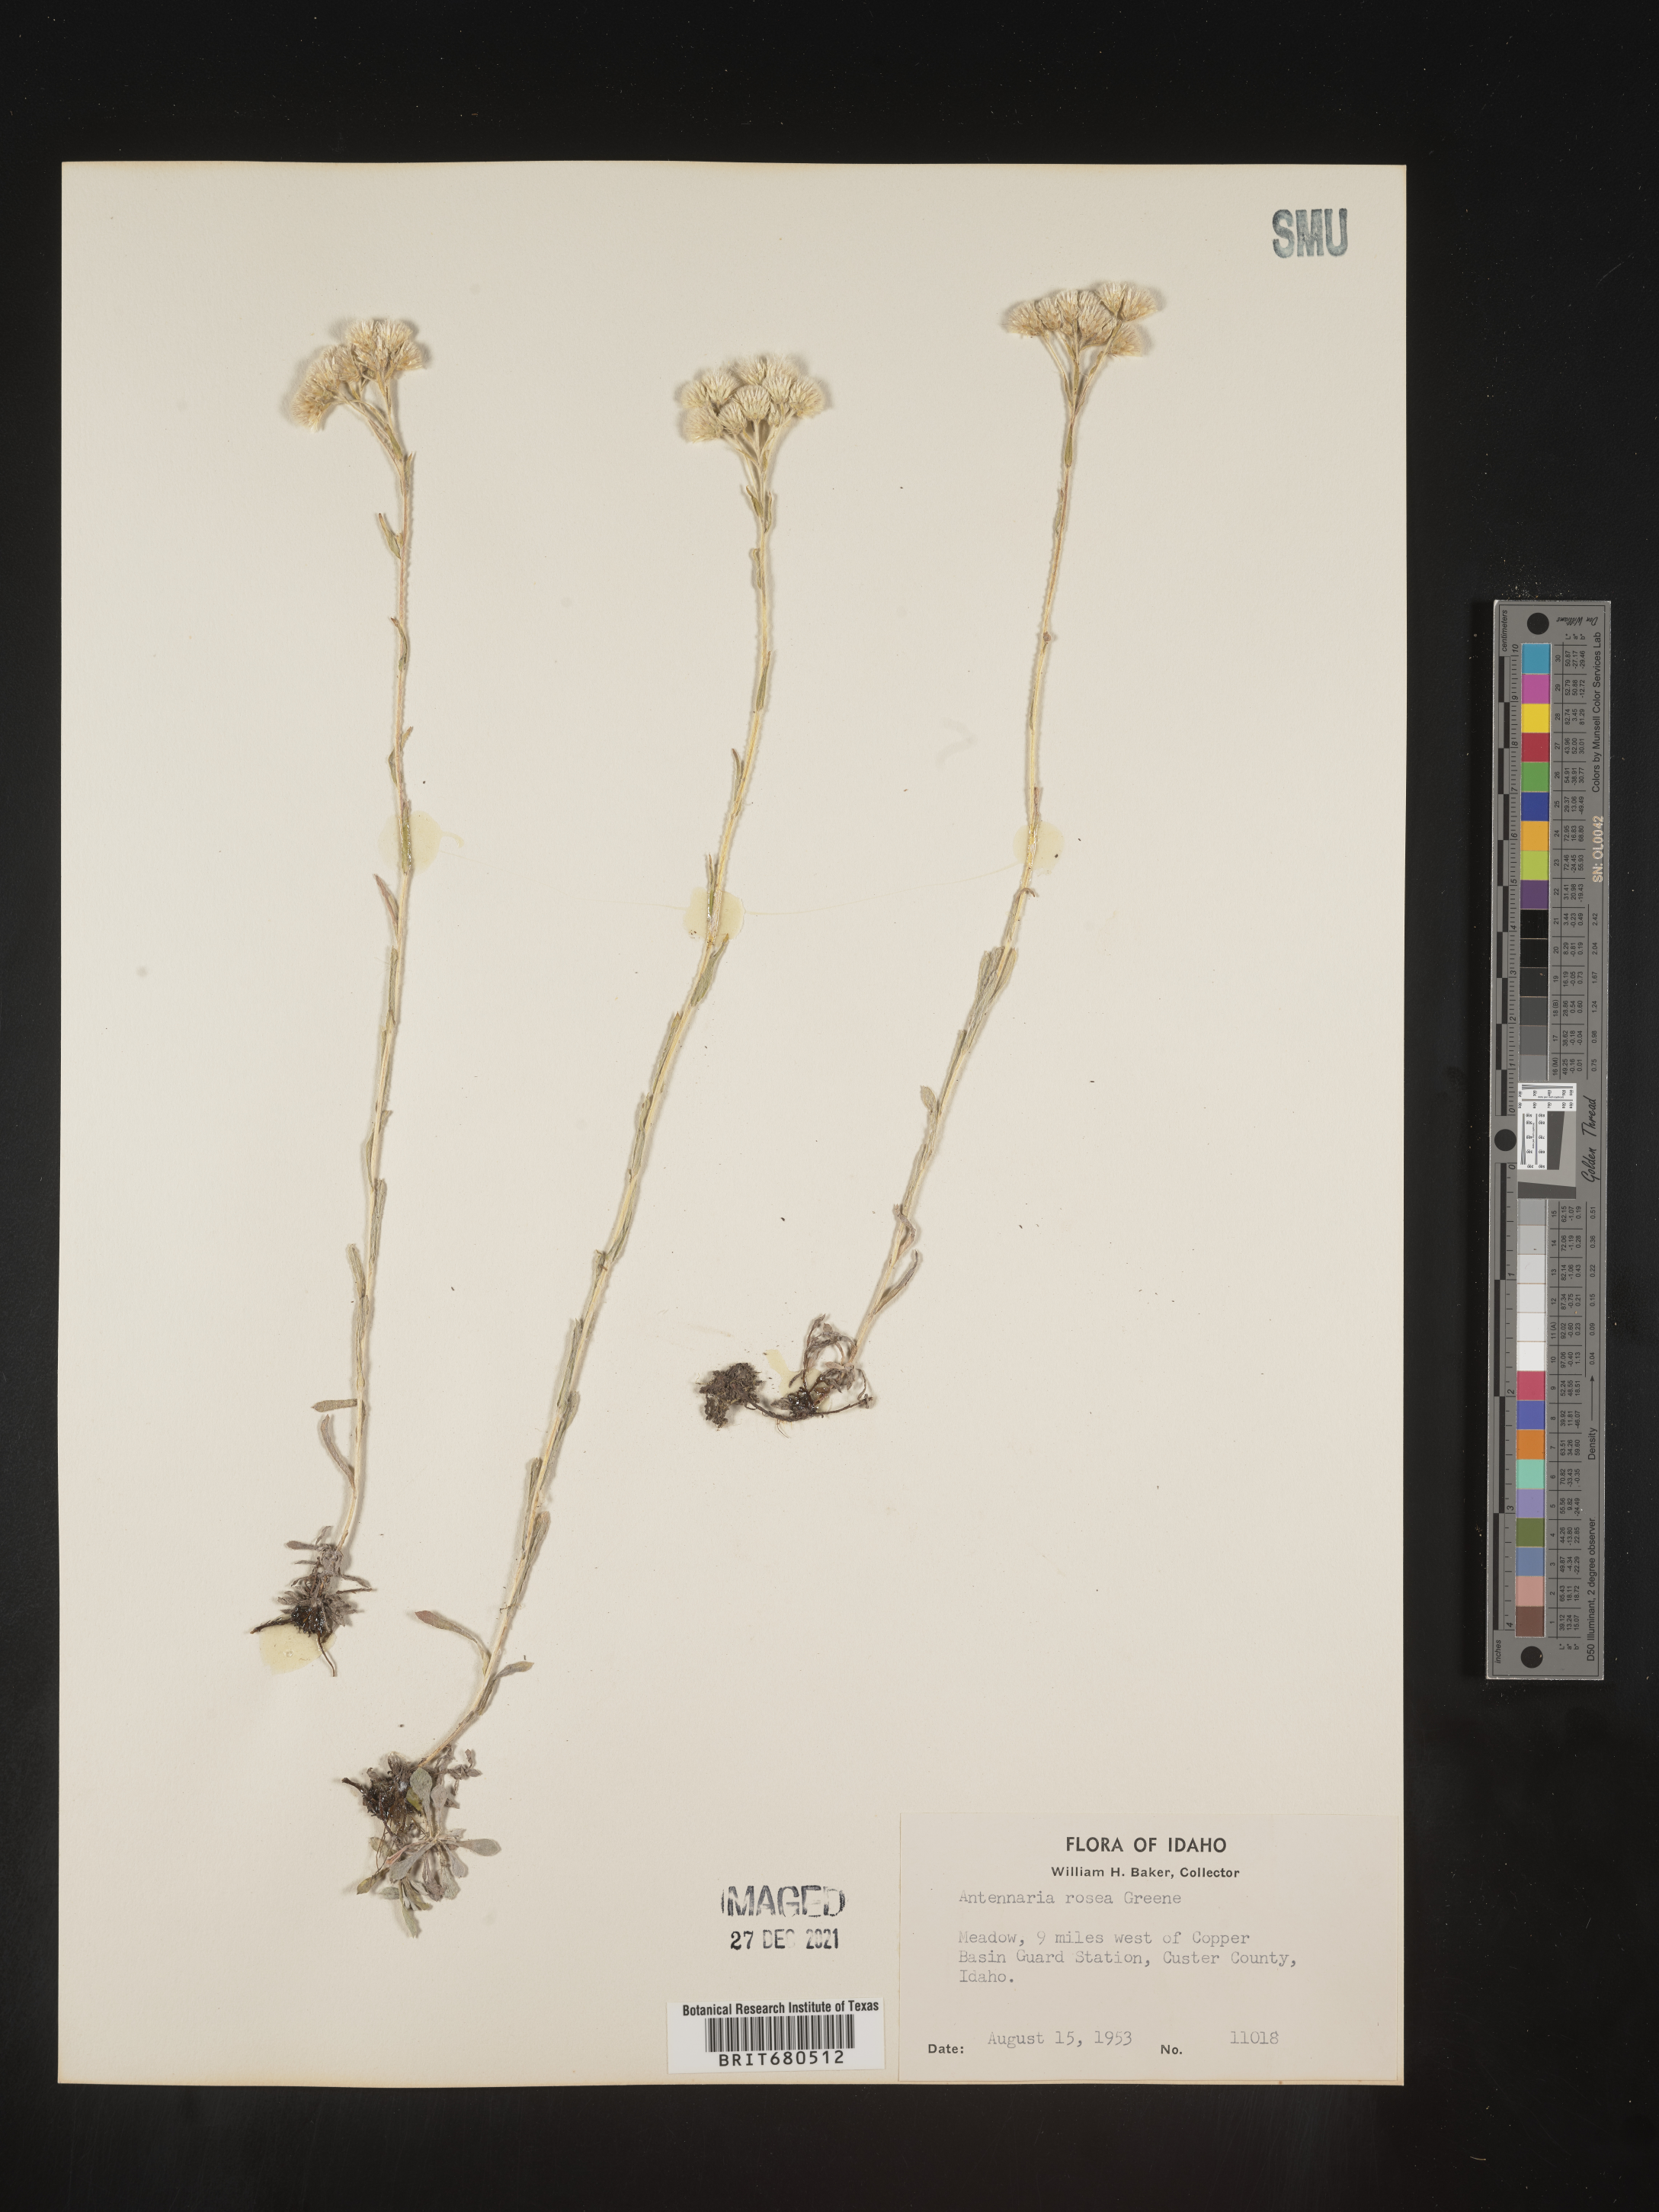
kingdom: Plantae
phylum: Tracheophyta
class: Magnoliopsida
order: Asterales
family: Asteraceae
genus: Antennaria
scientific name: Antennaria rosea
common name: Rosy pussytoes
